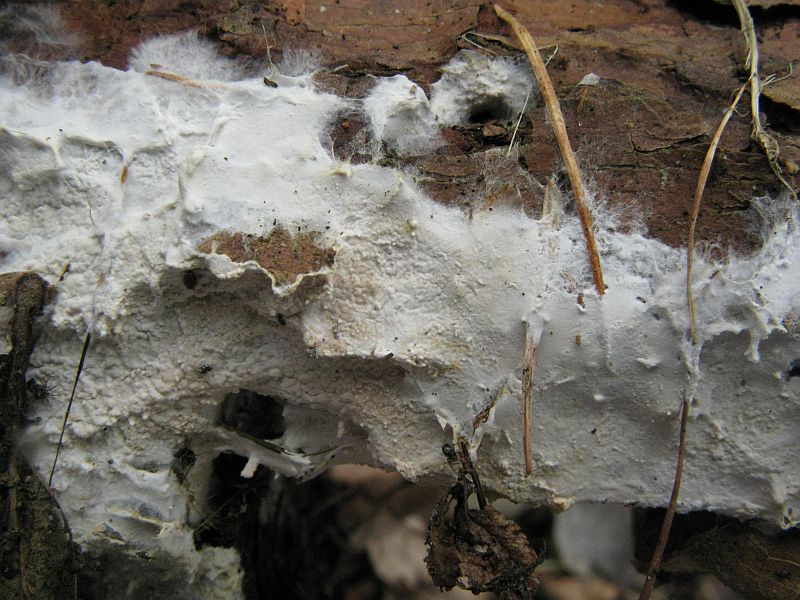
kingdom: Fungi
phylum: Basidiomycota
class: Agaricomycetes
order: Polyporales
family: Irpicaceae
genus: Crystallicutis
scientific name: Crystallicutis serpens
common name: gråviolet barkhinde
